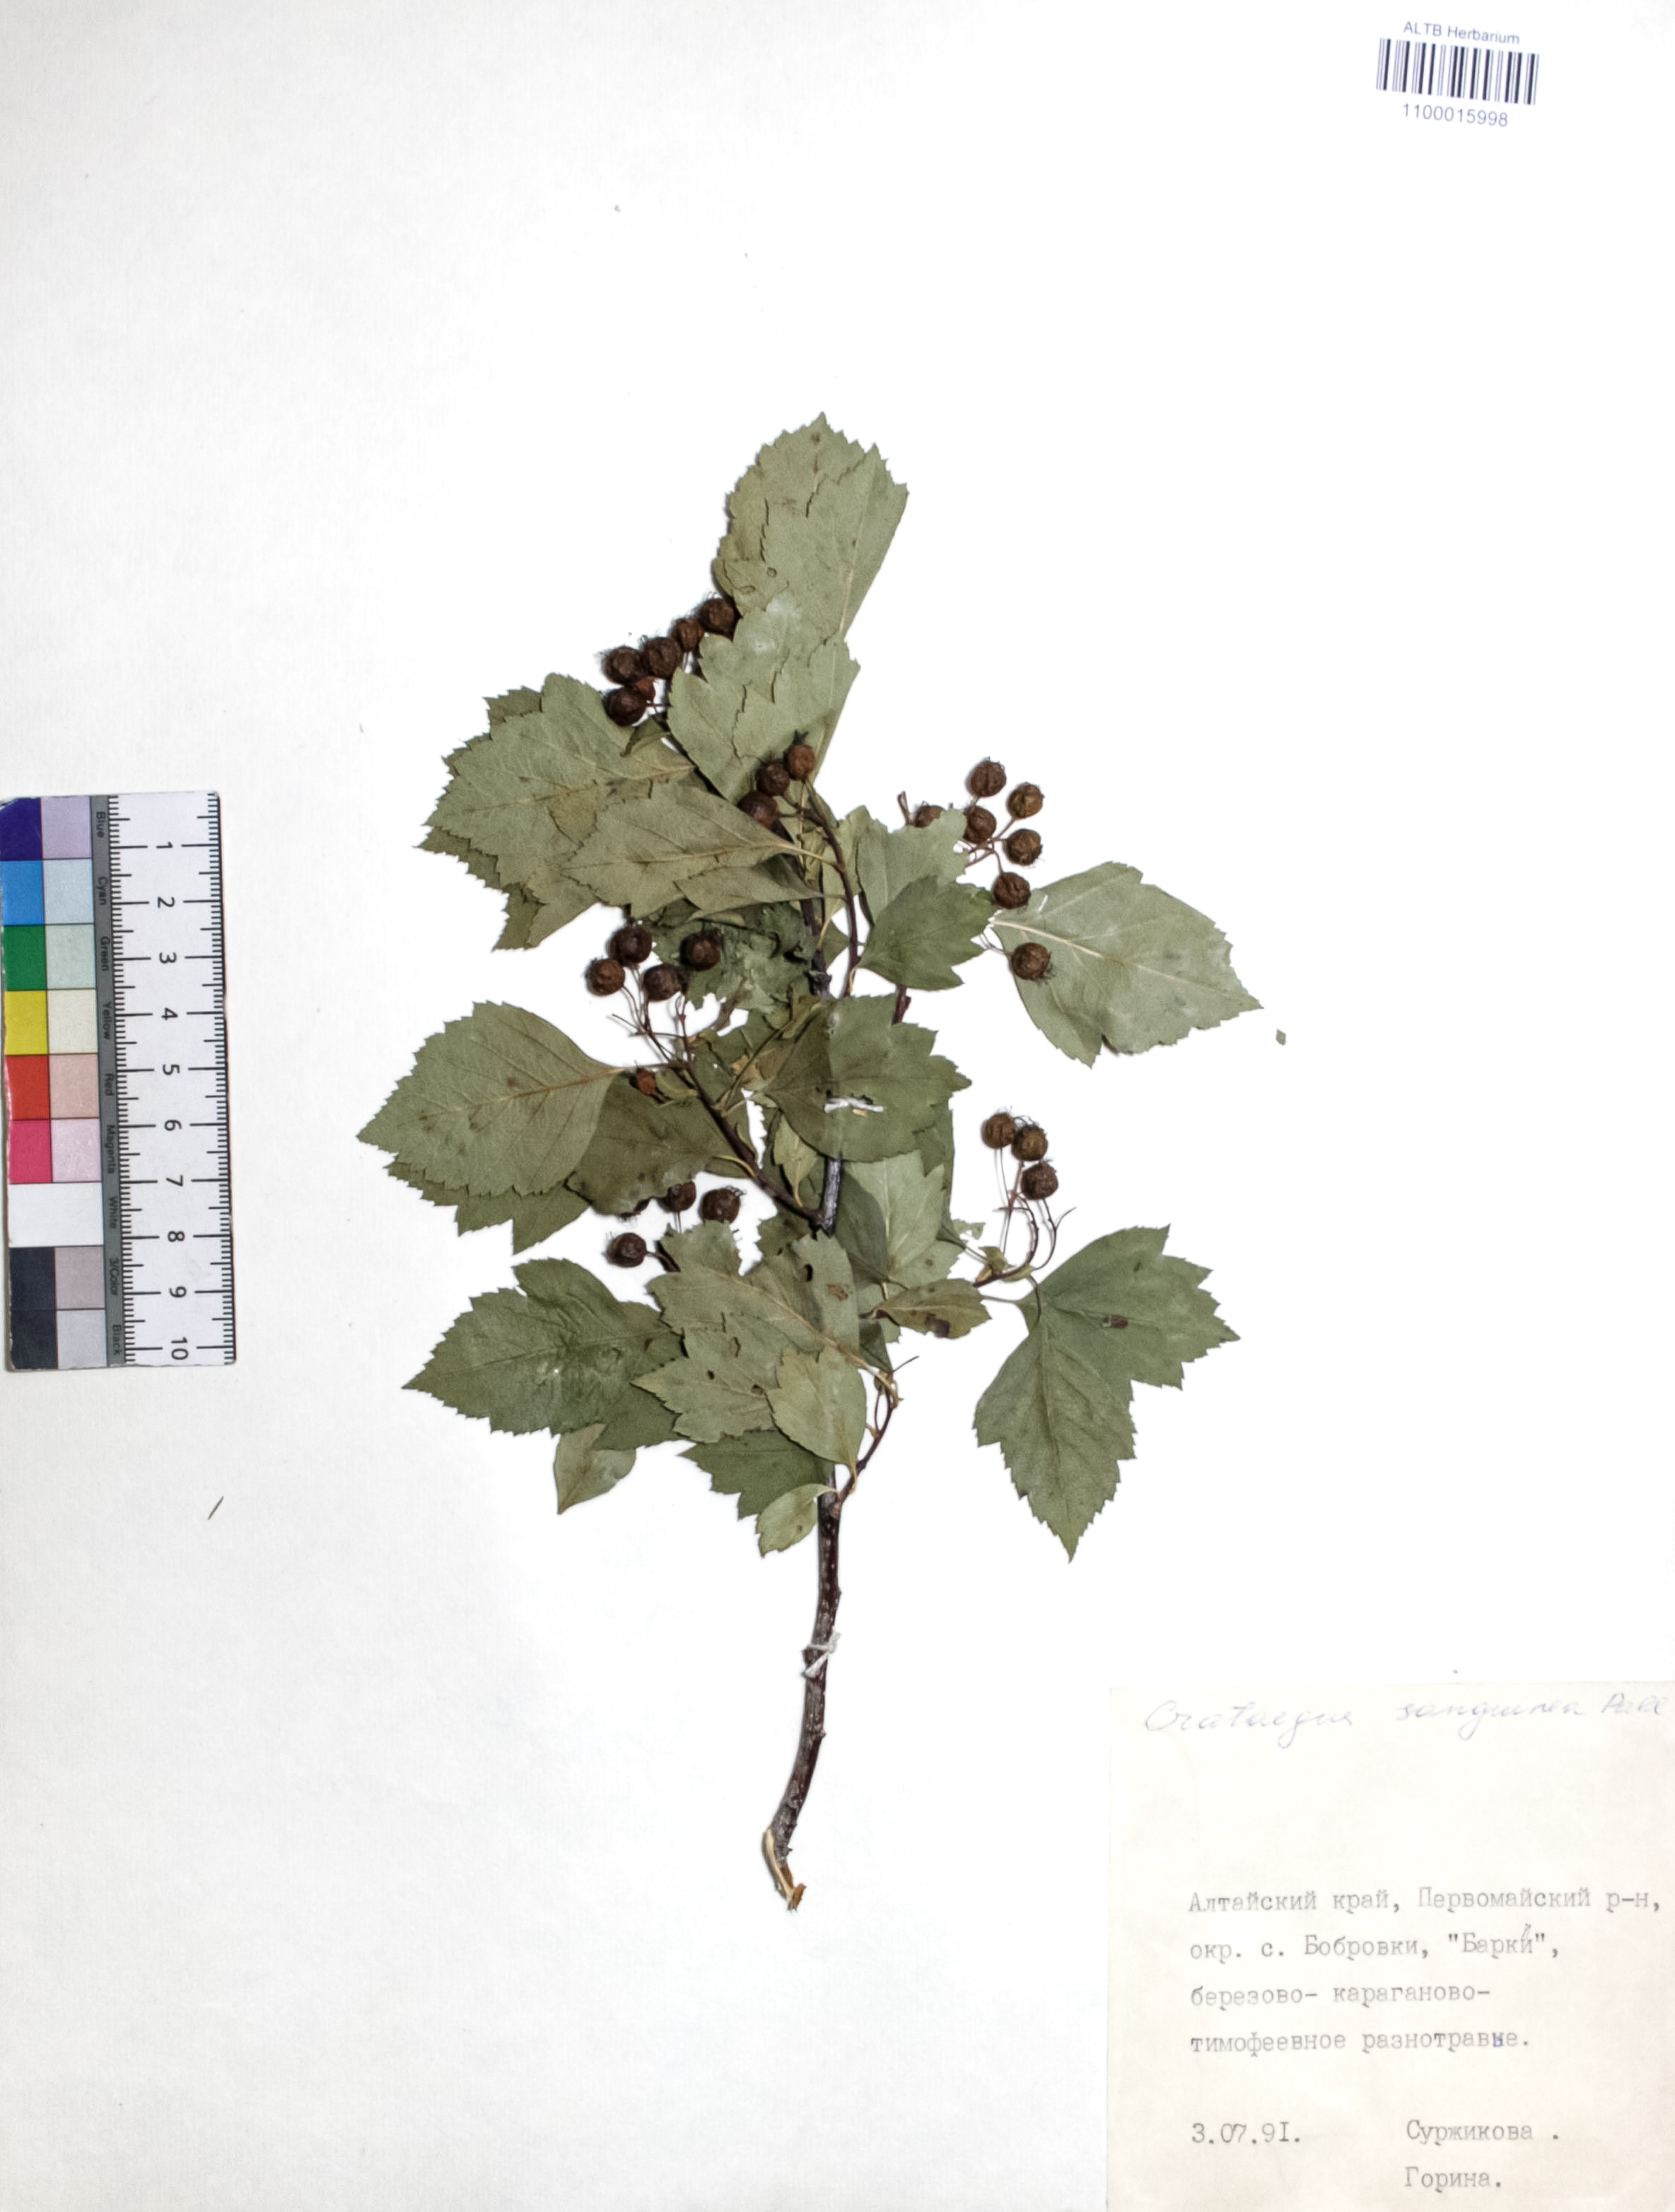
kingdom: Plantae
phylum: Tracheophyta
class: Magnoliopsida
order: Rosales
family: Rosaceae
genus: Crataegus
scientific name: Crataegus sanguinea
